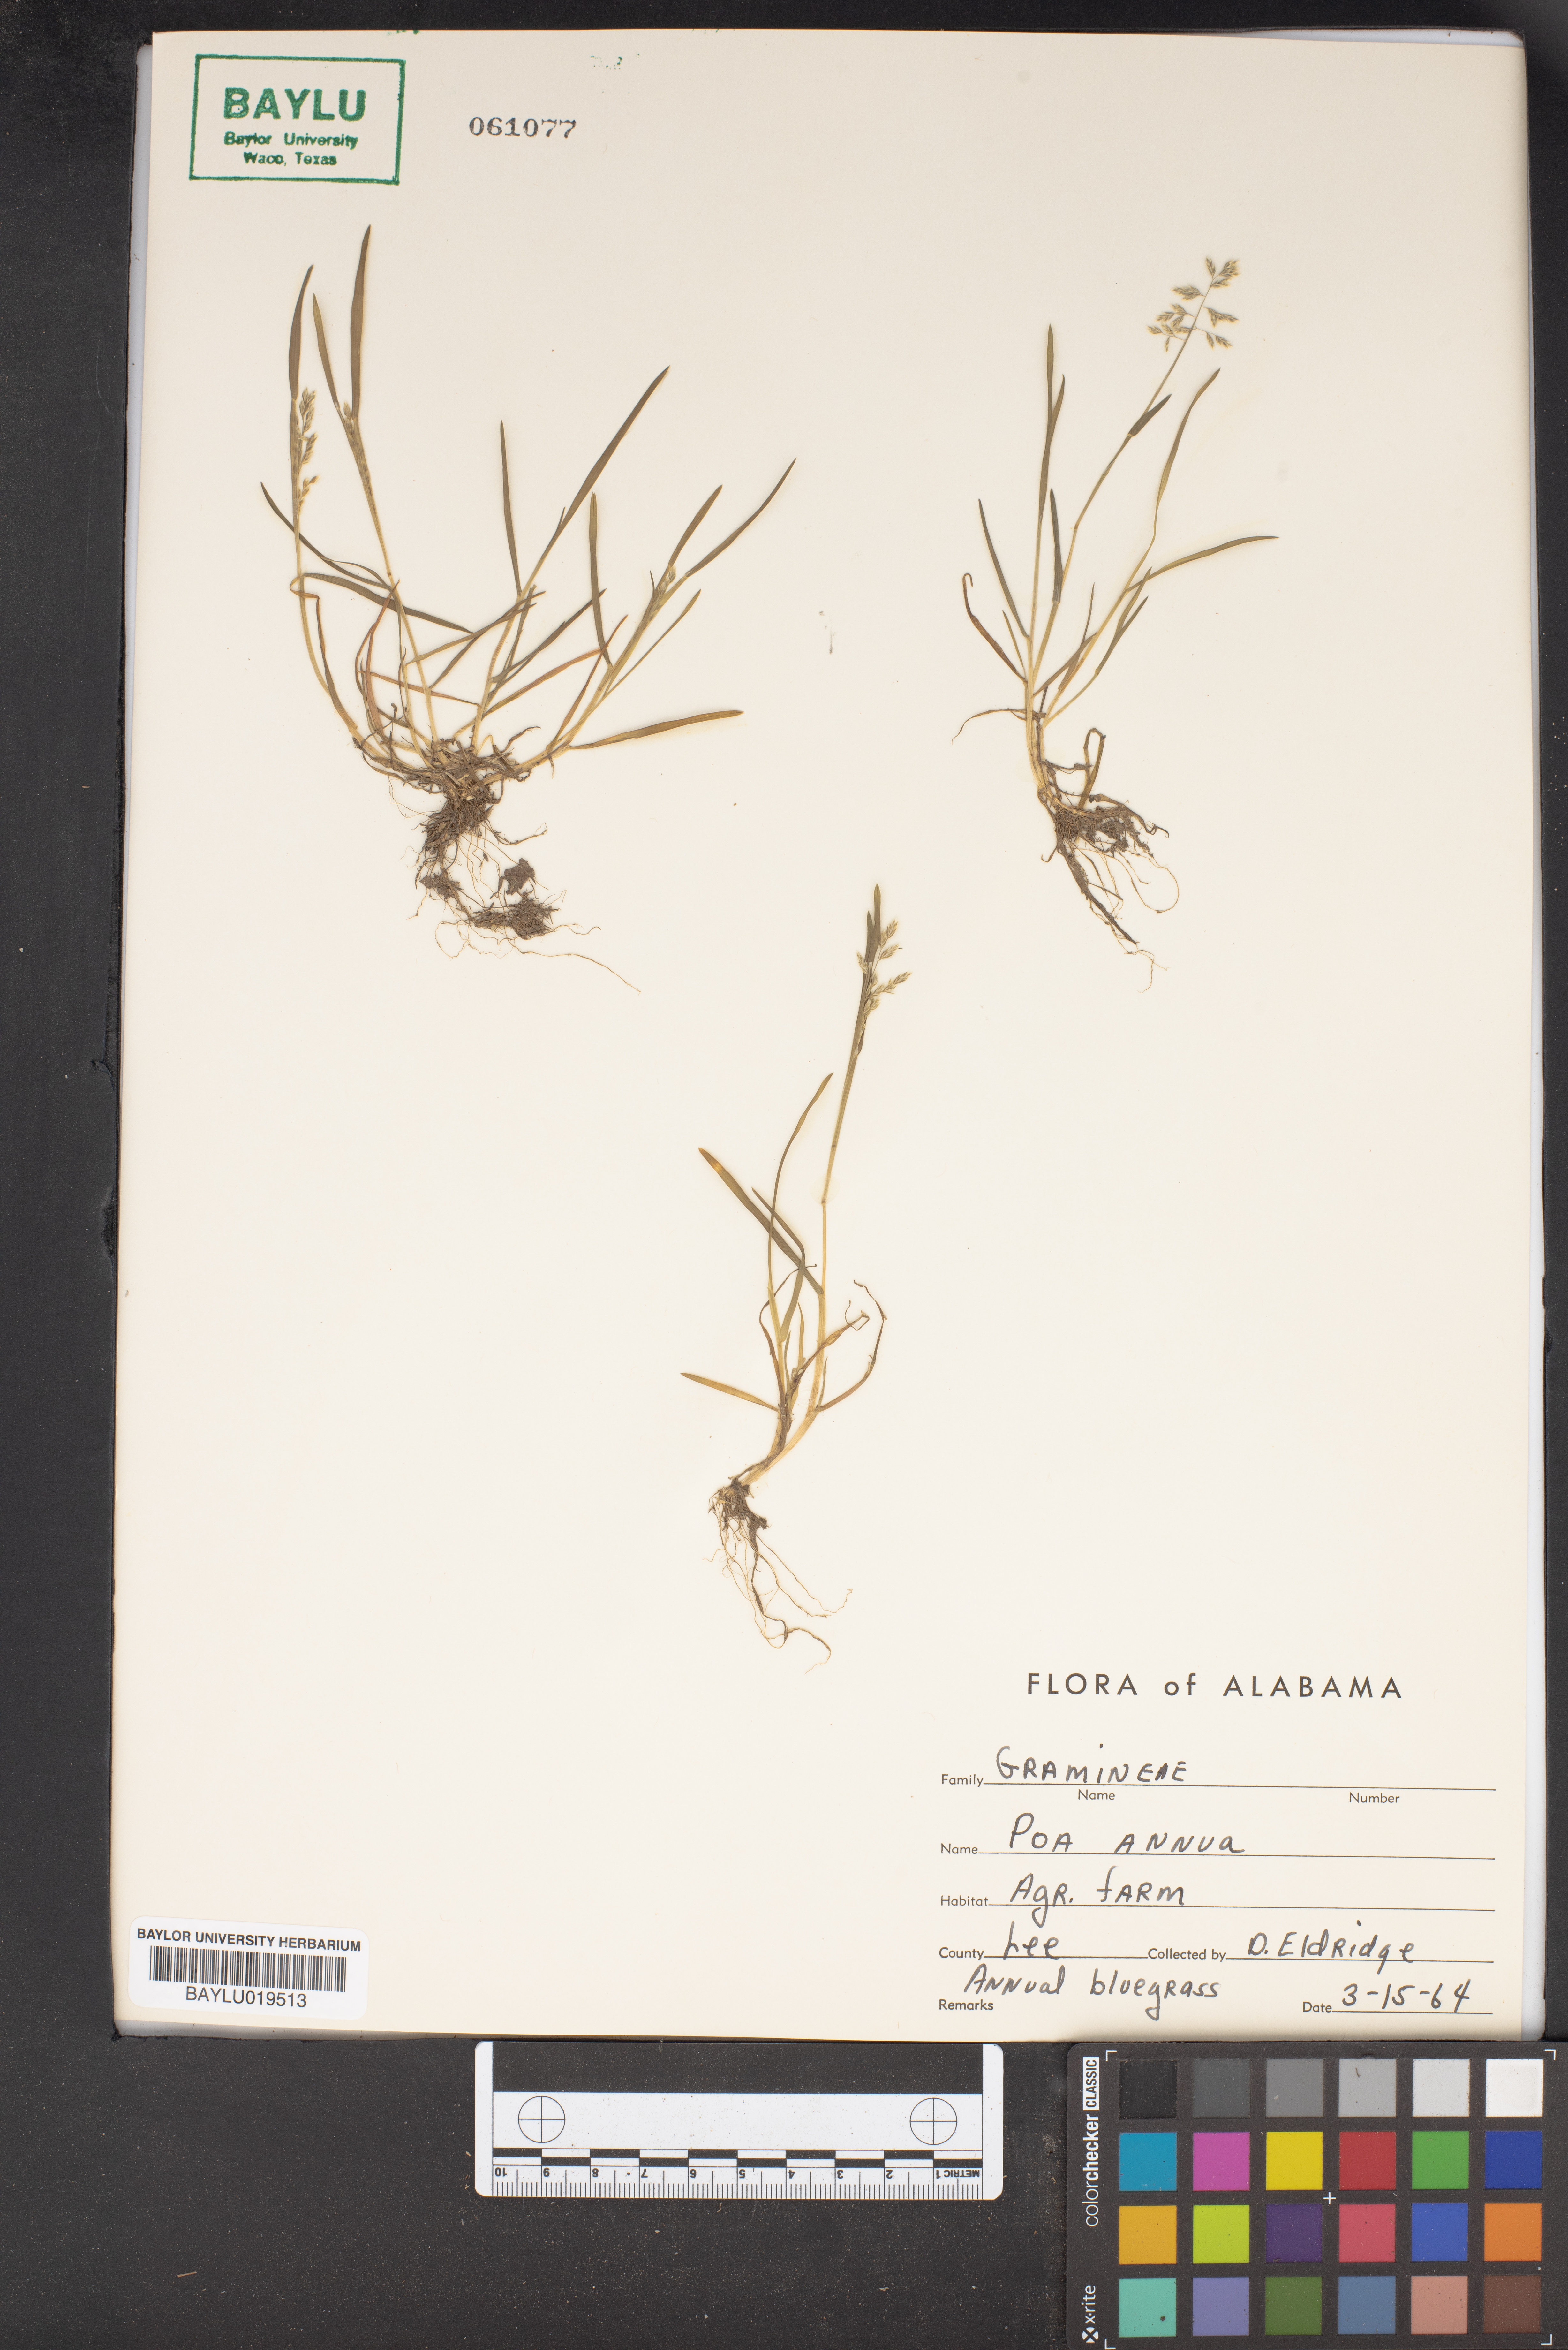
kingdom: Plantae
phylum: Tracheophyta
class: Liliopsida
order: Poales
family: Poaceae
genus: Poa
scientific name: Poa annua
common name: Annual bluegrass
